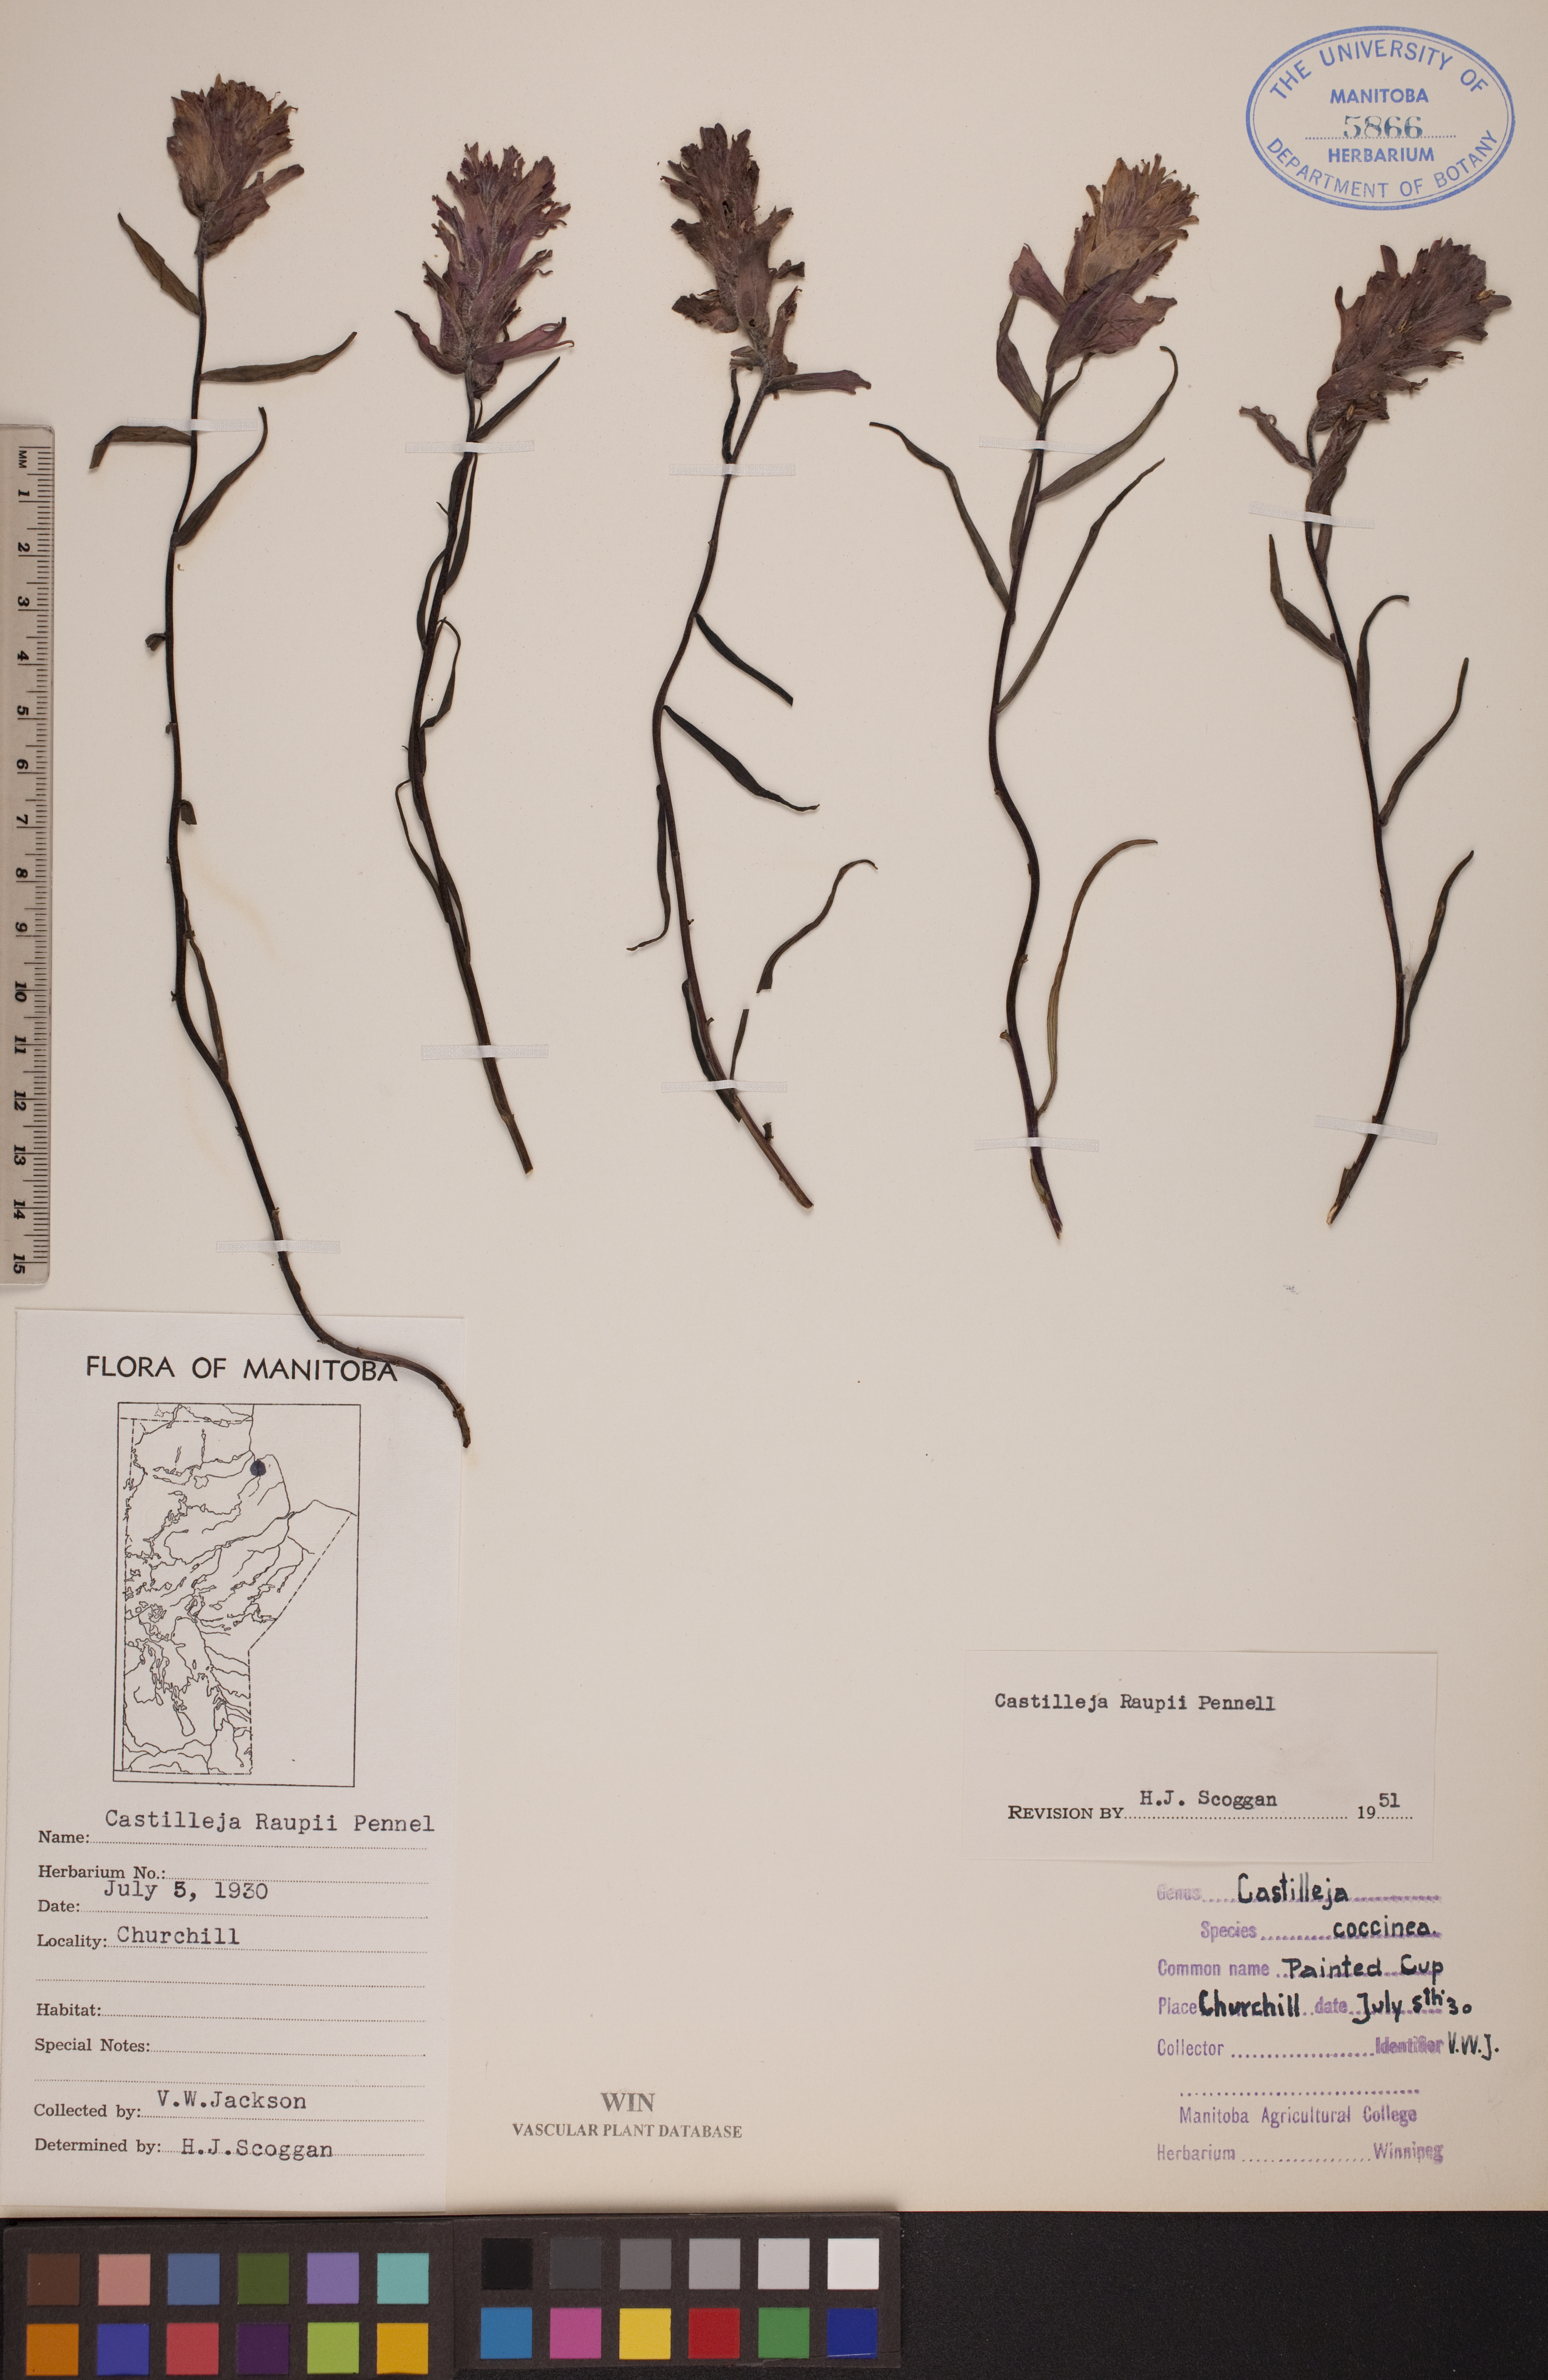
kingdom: Plantae
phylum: Tracheophyta
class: Magnoliopsida
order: Lamiales
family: Orobanchaceae
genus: Castilleja
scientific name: Castilleja raupii
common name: Raup's paintbrush
